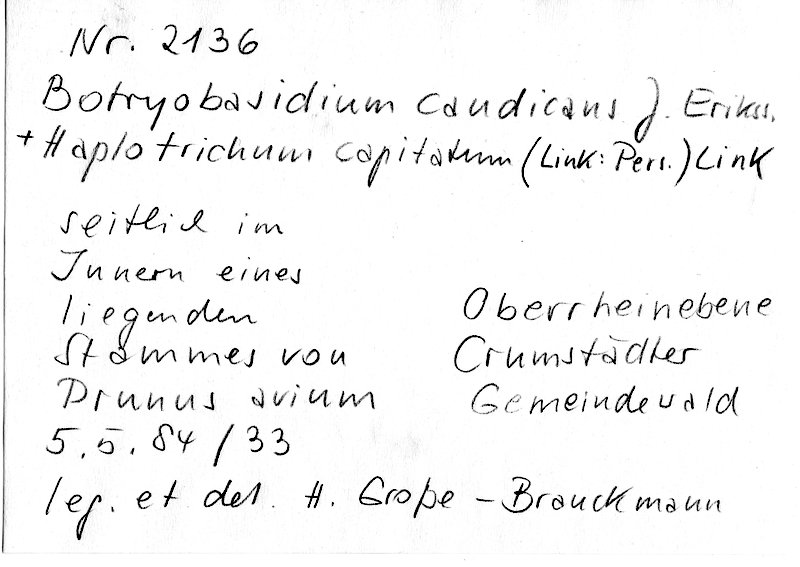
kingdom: Plantae
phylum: Tracheophyta
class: Magnoliopsida
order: Rosales
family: Rosaceae
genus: Prunus
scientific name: Prunus avium
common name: Sweet cherry
